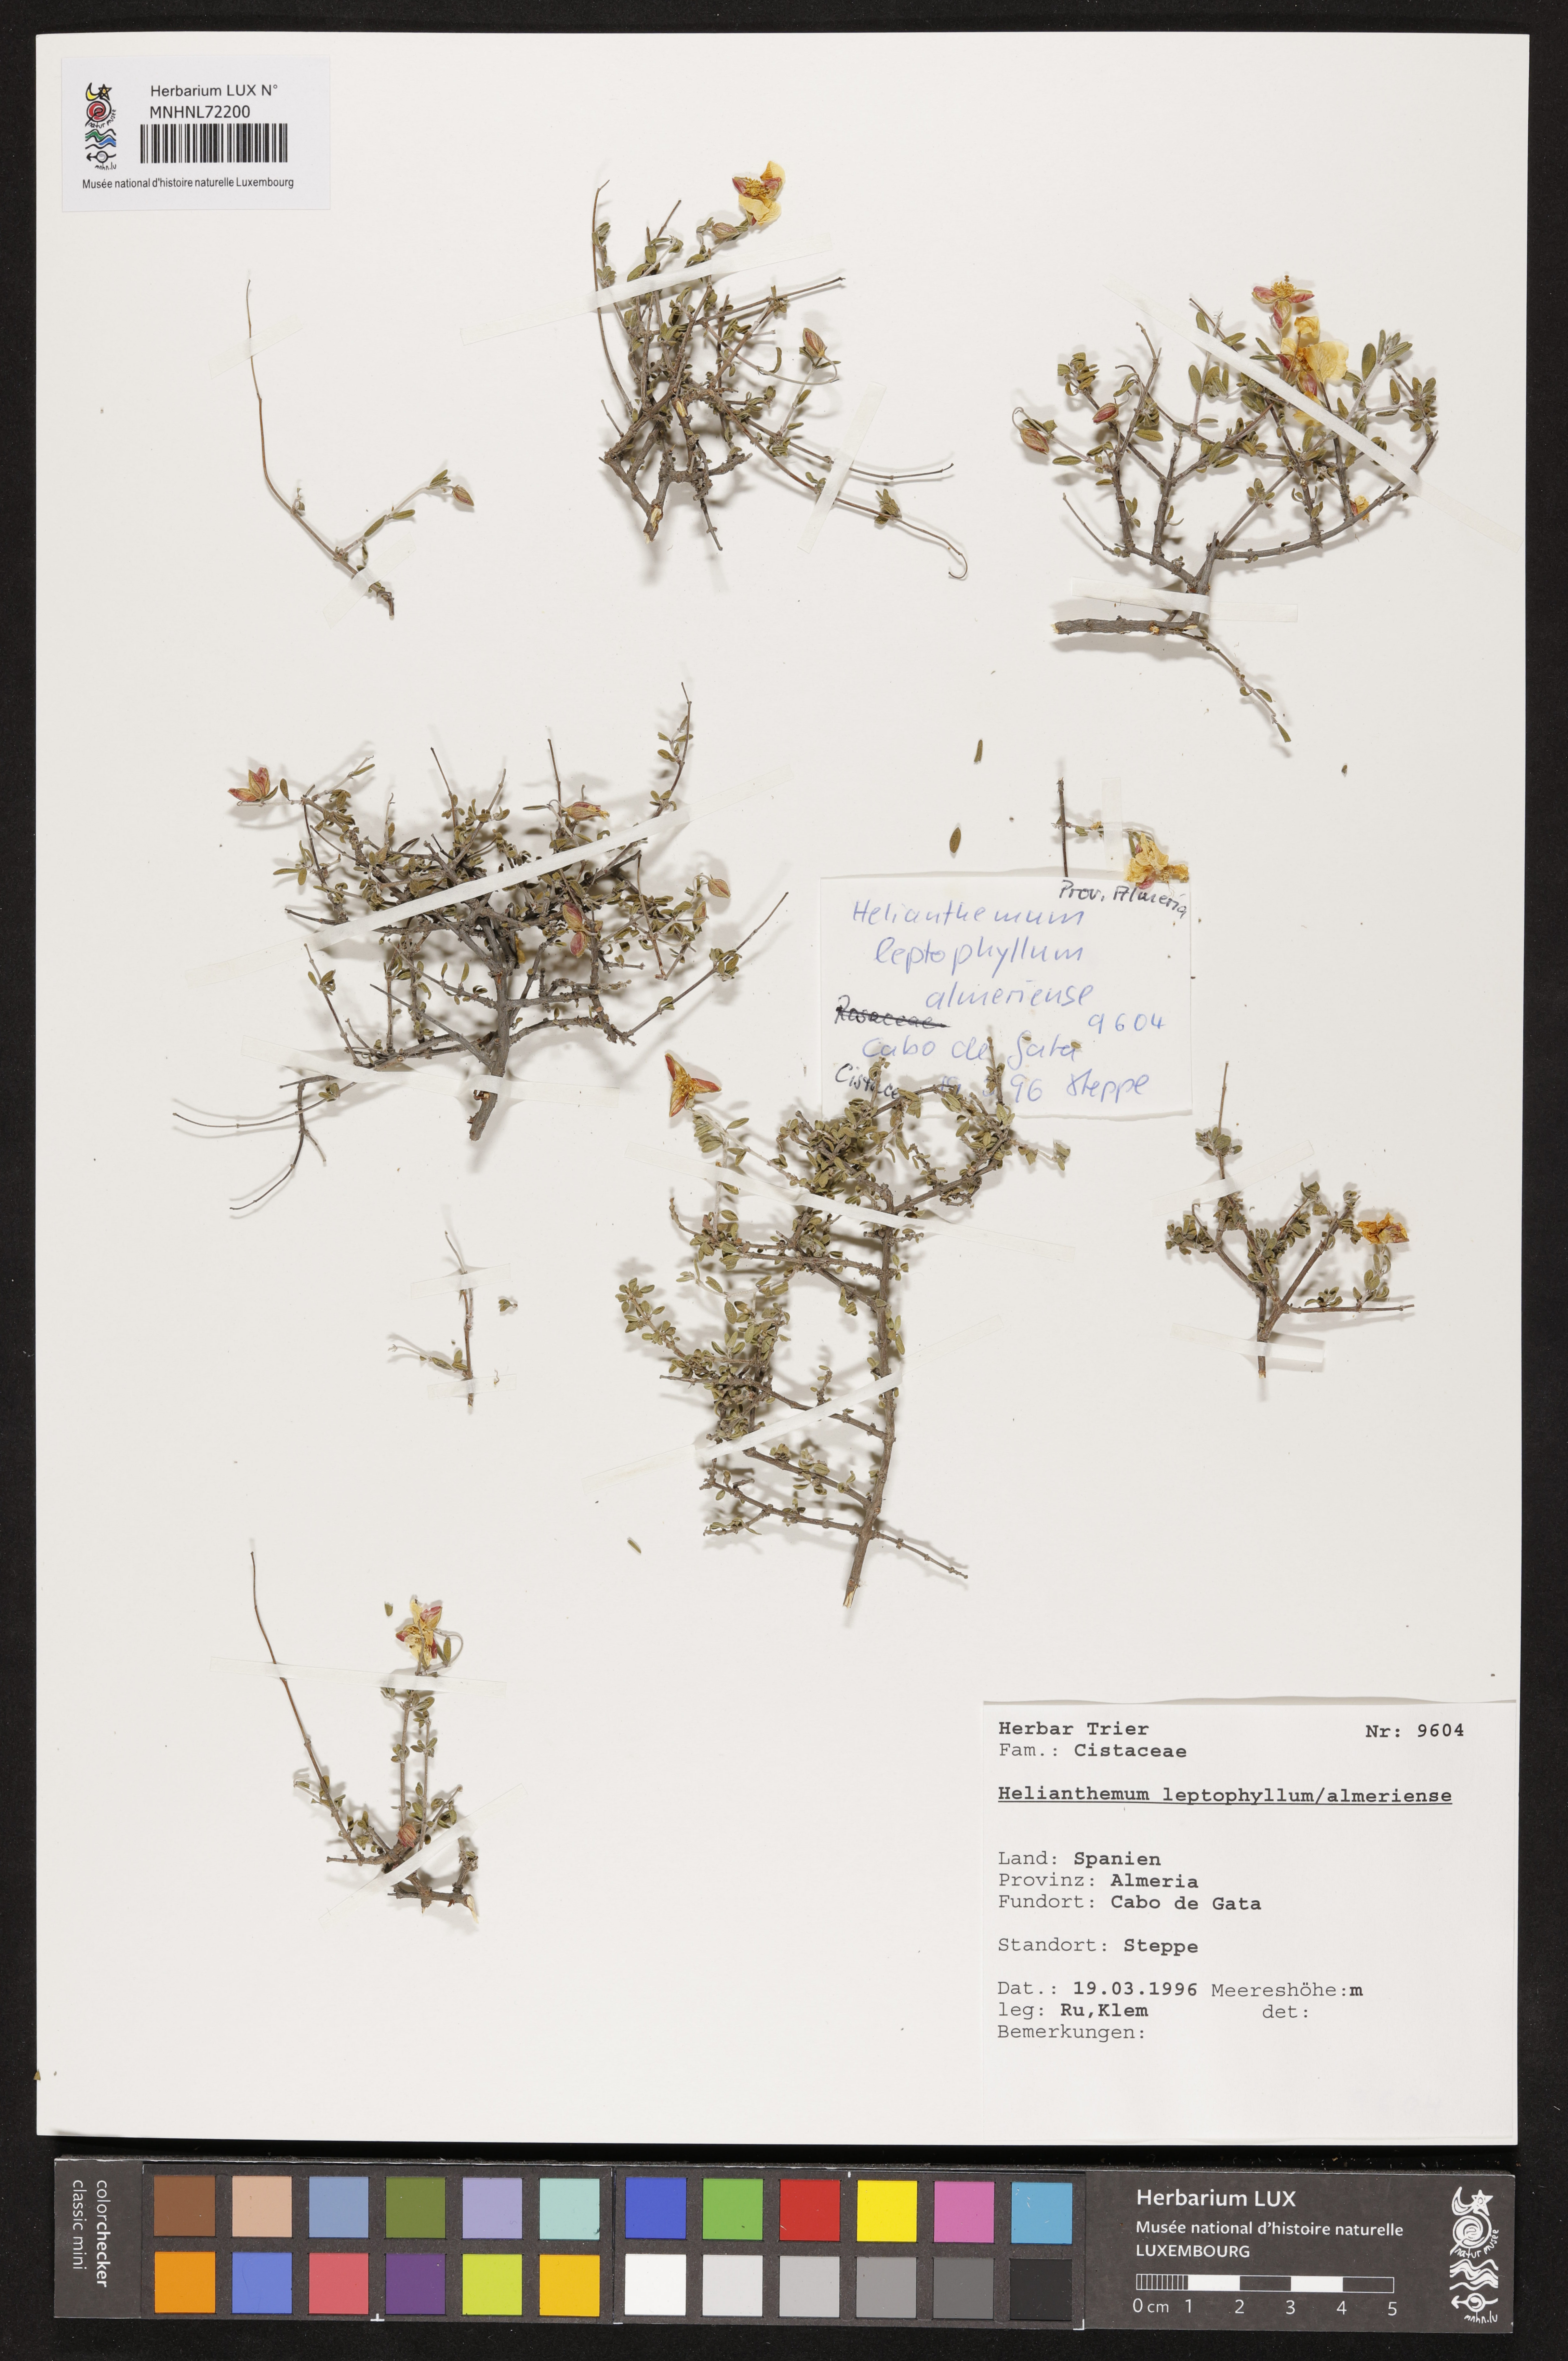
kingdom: Plantae
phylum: Tracheophyta
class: Magnoliopsida
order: Malvales
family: Cistaceae
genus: Helianthemum
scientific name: Helianthemum leptophyllum
